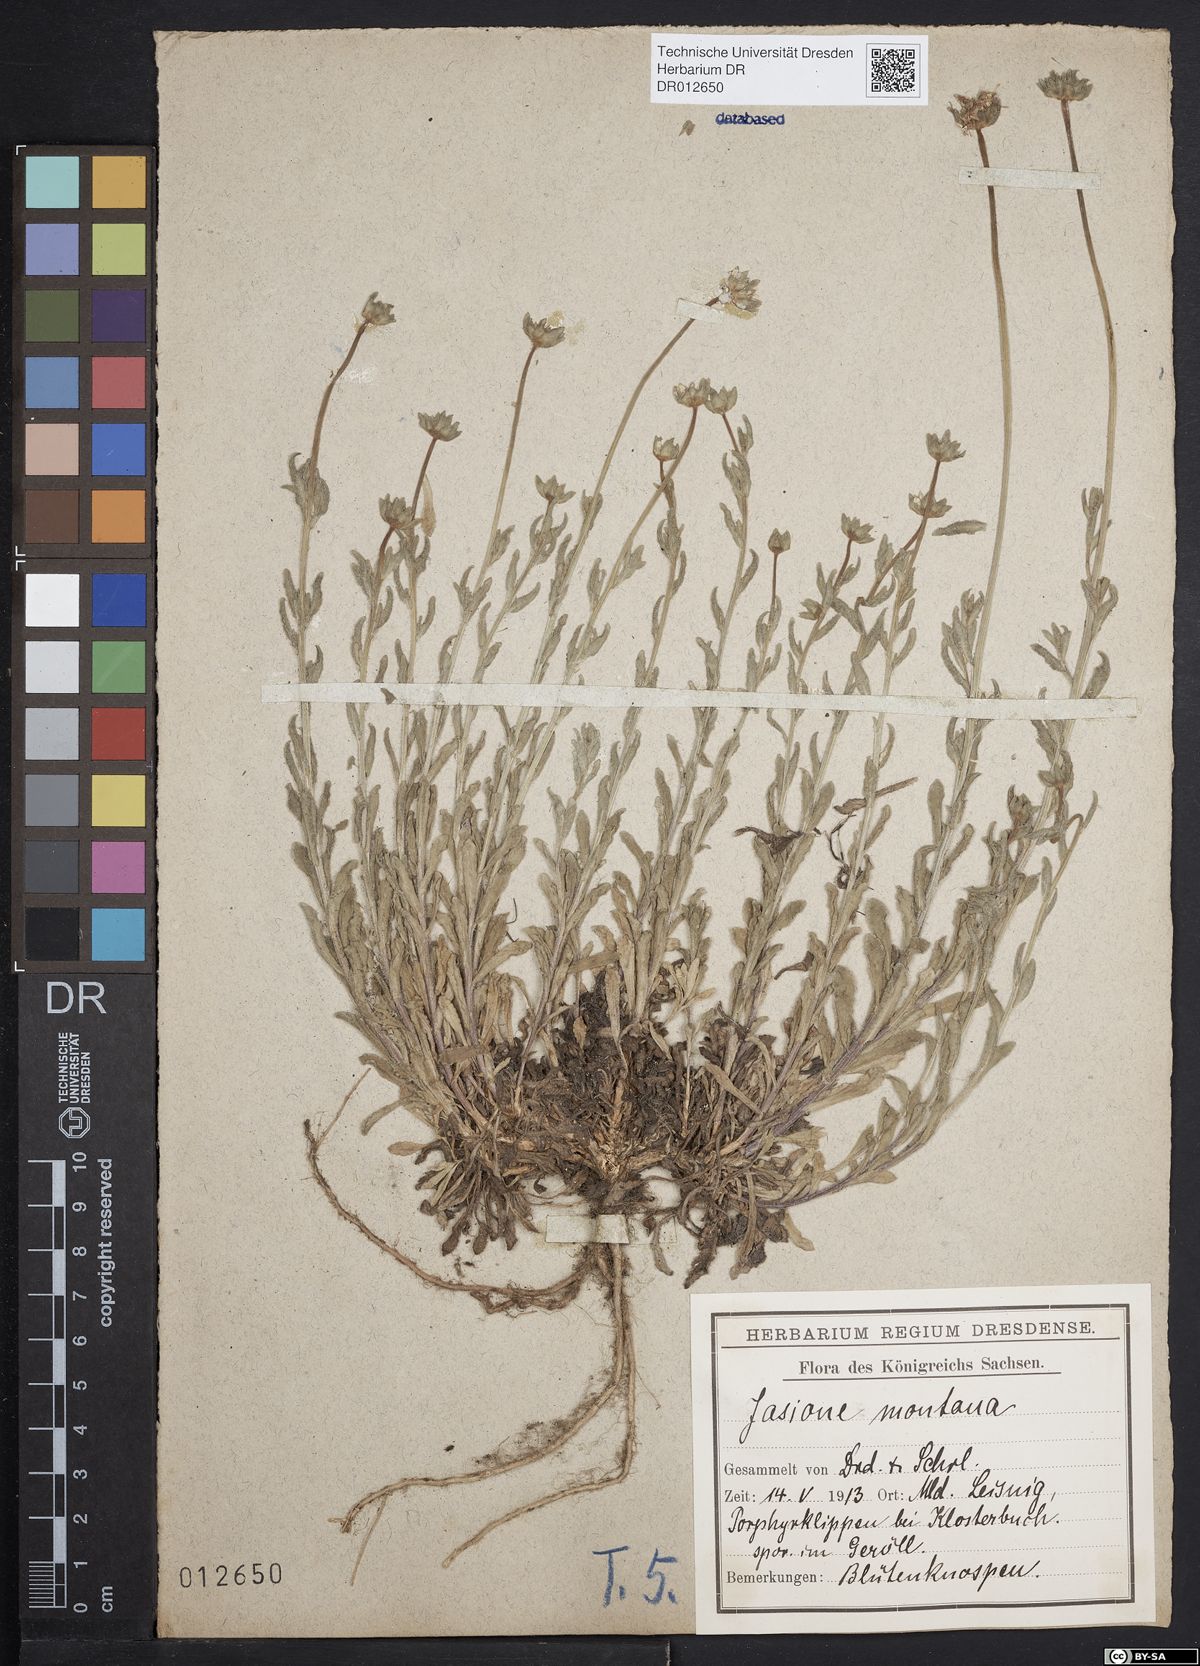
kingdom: Plantae
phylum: Tracheophyta
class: Magnoliopsida
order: Asterales
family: Campanulaceae
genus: Jasione
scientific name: Jasione montana
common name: Sheep's-bit
